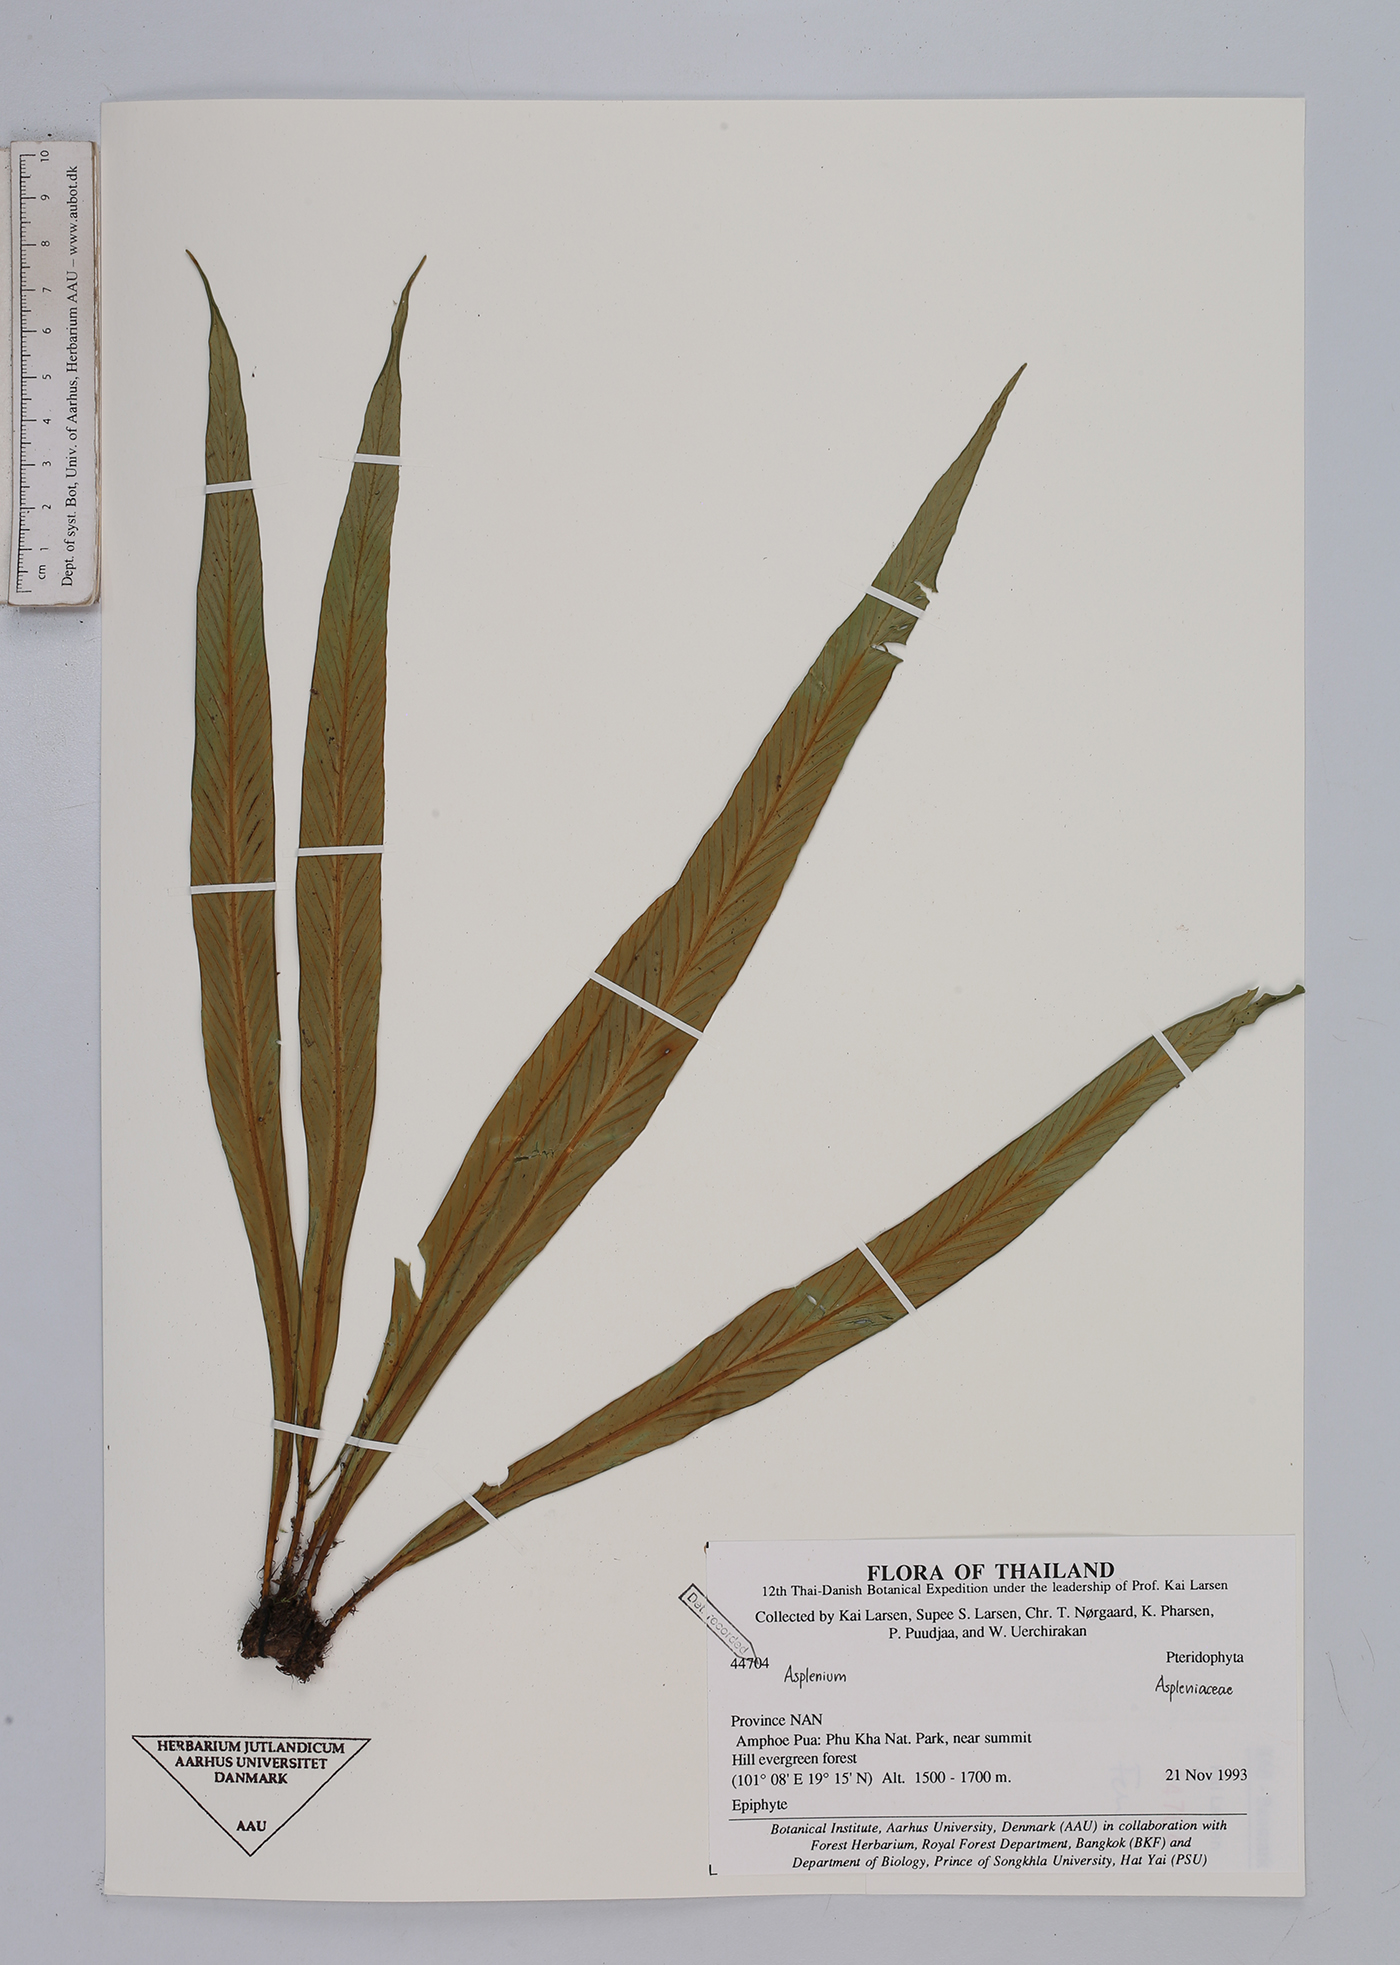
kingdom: Plantae
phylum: Tracheophyta
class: Polypodiopsida
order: Polypodiales
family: Aspleniaceae
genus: Asplenium
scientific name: Asplenium
